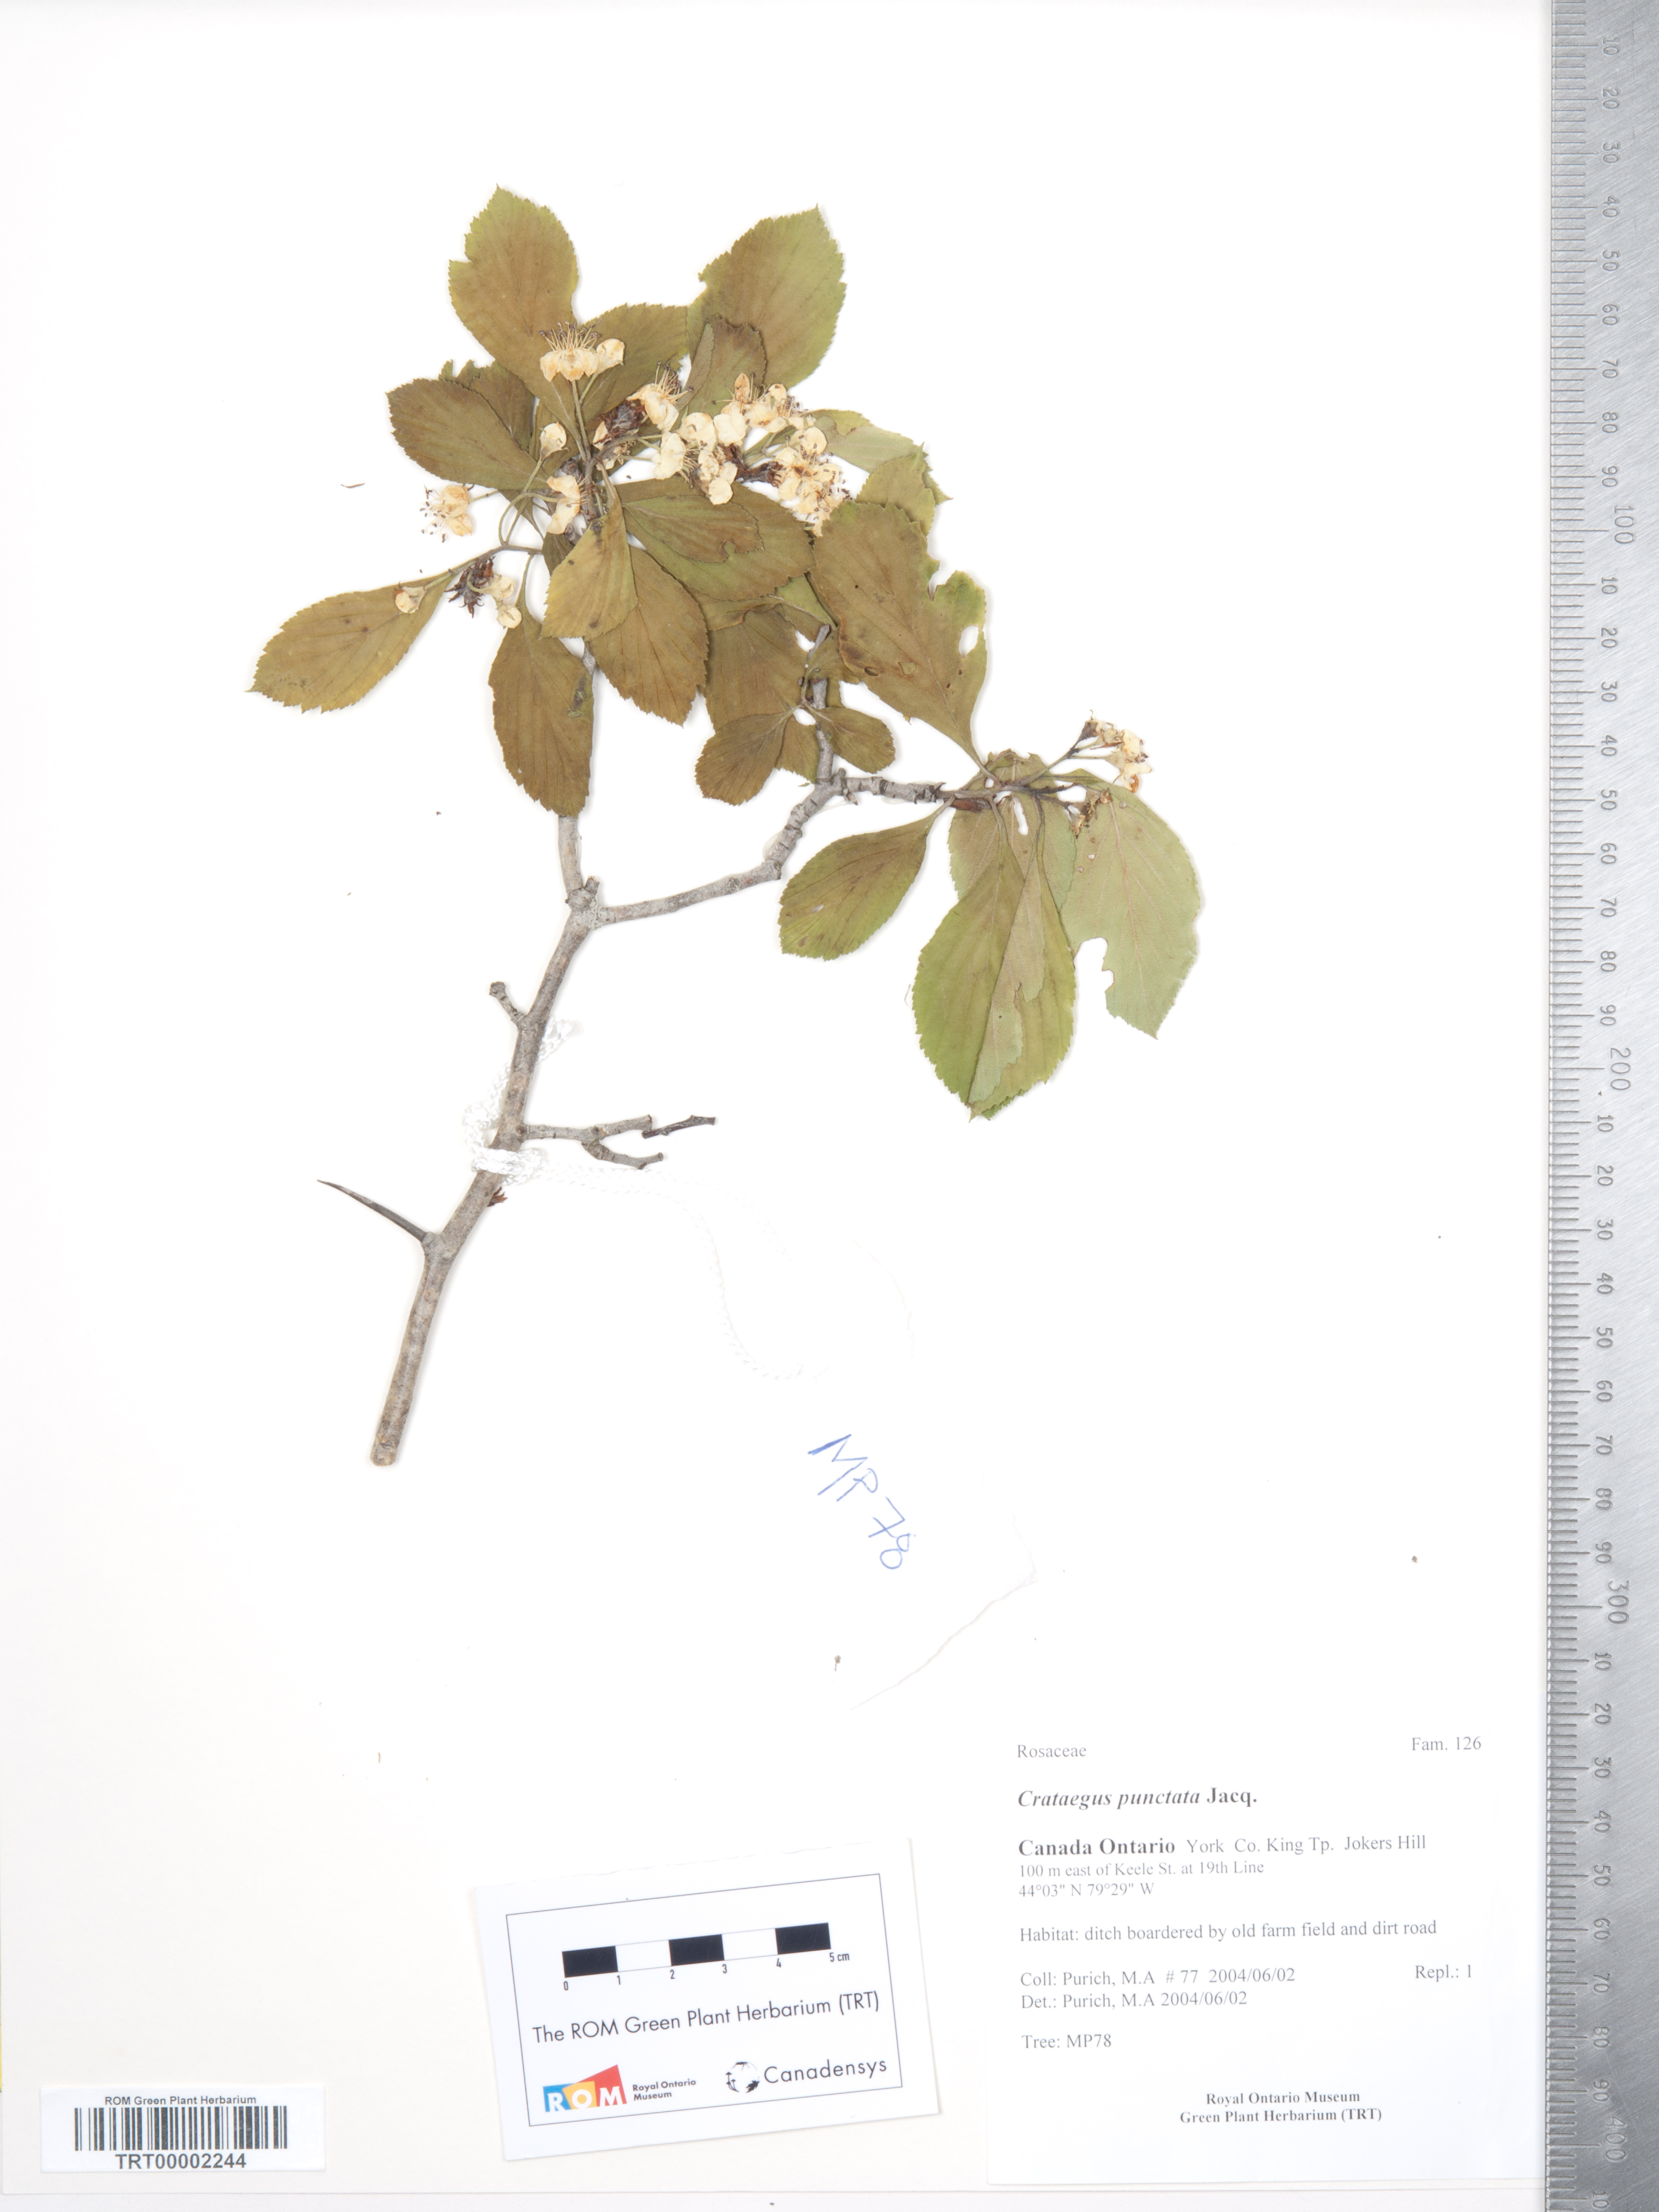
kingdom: Plantae
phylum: Tracheophyta
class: Magnoliopsida
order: Rosales
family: Rosaceae
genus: Crataegus
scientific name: Crataegus punctata
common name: Dotted hawthorn
